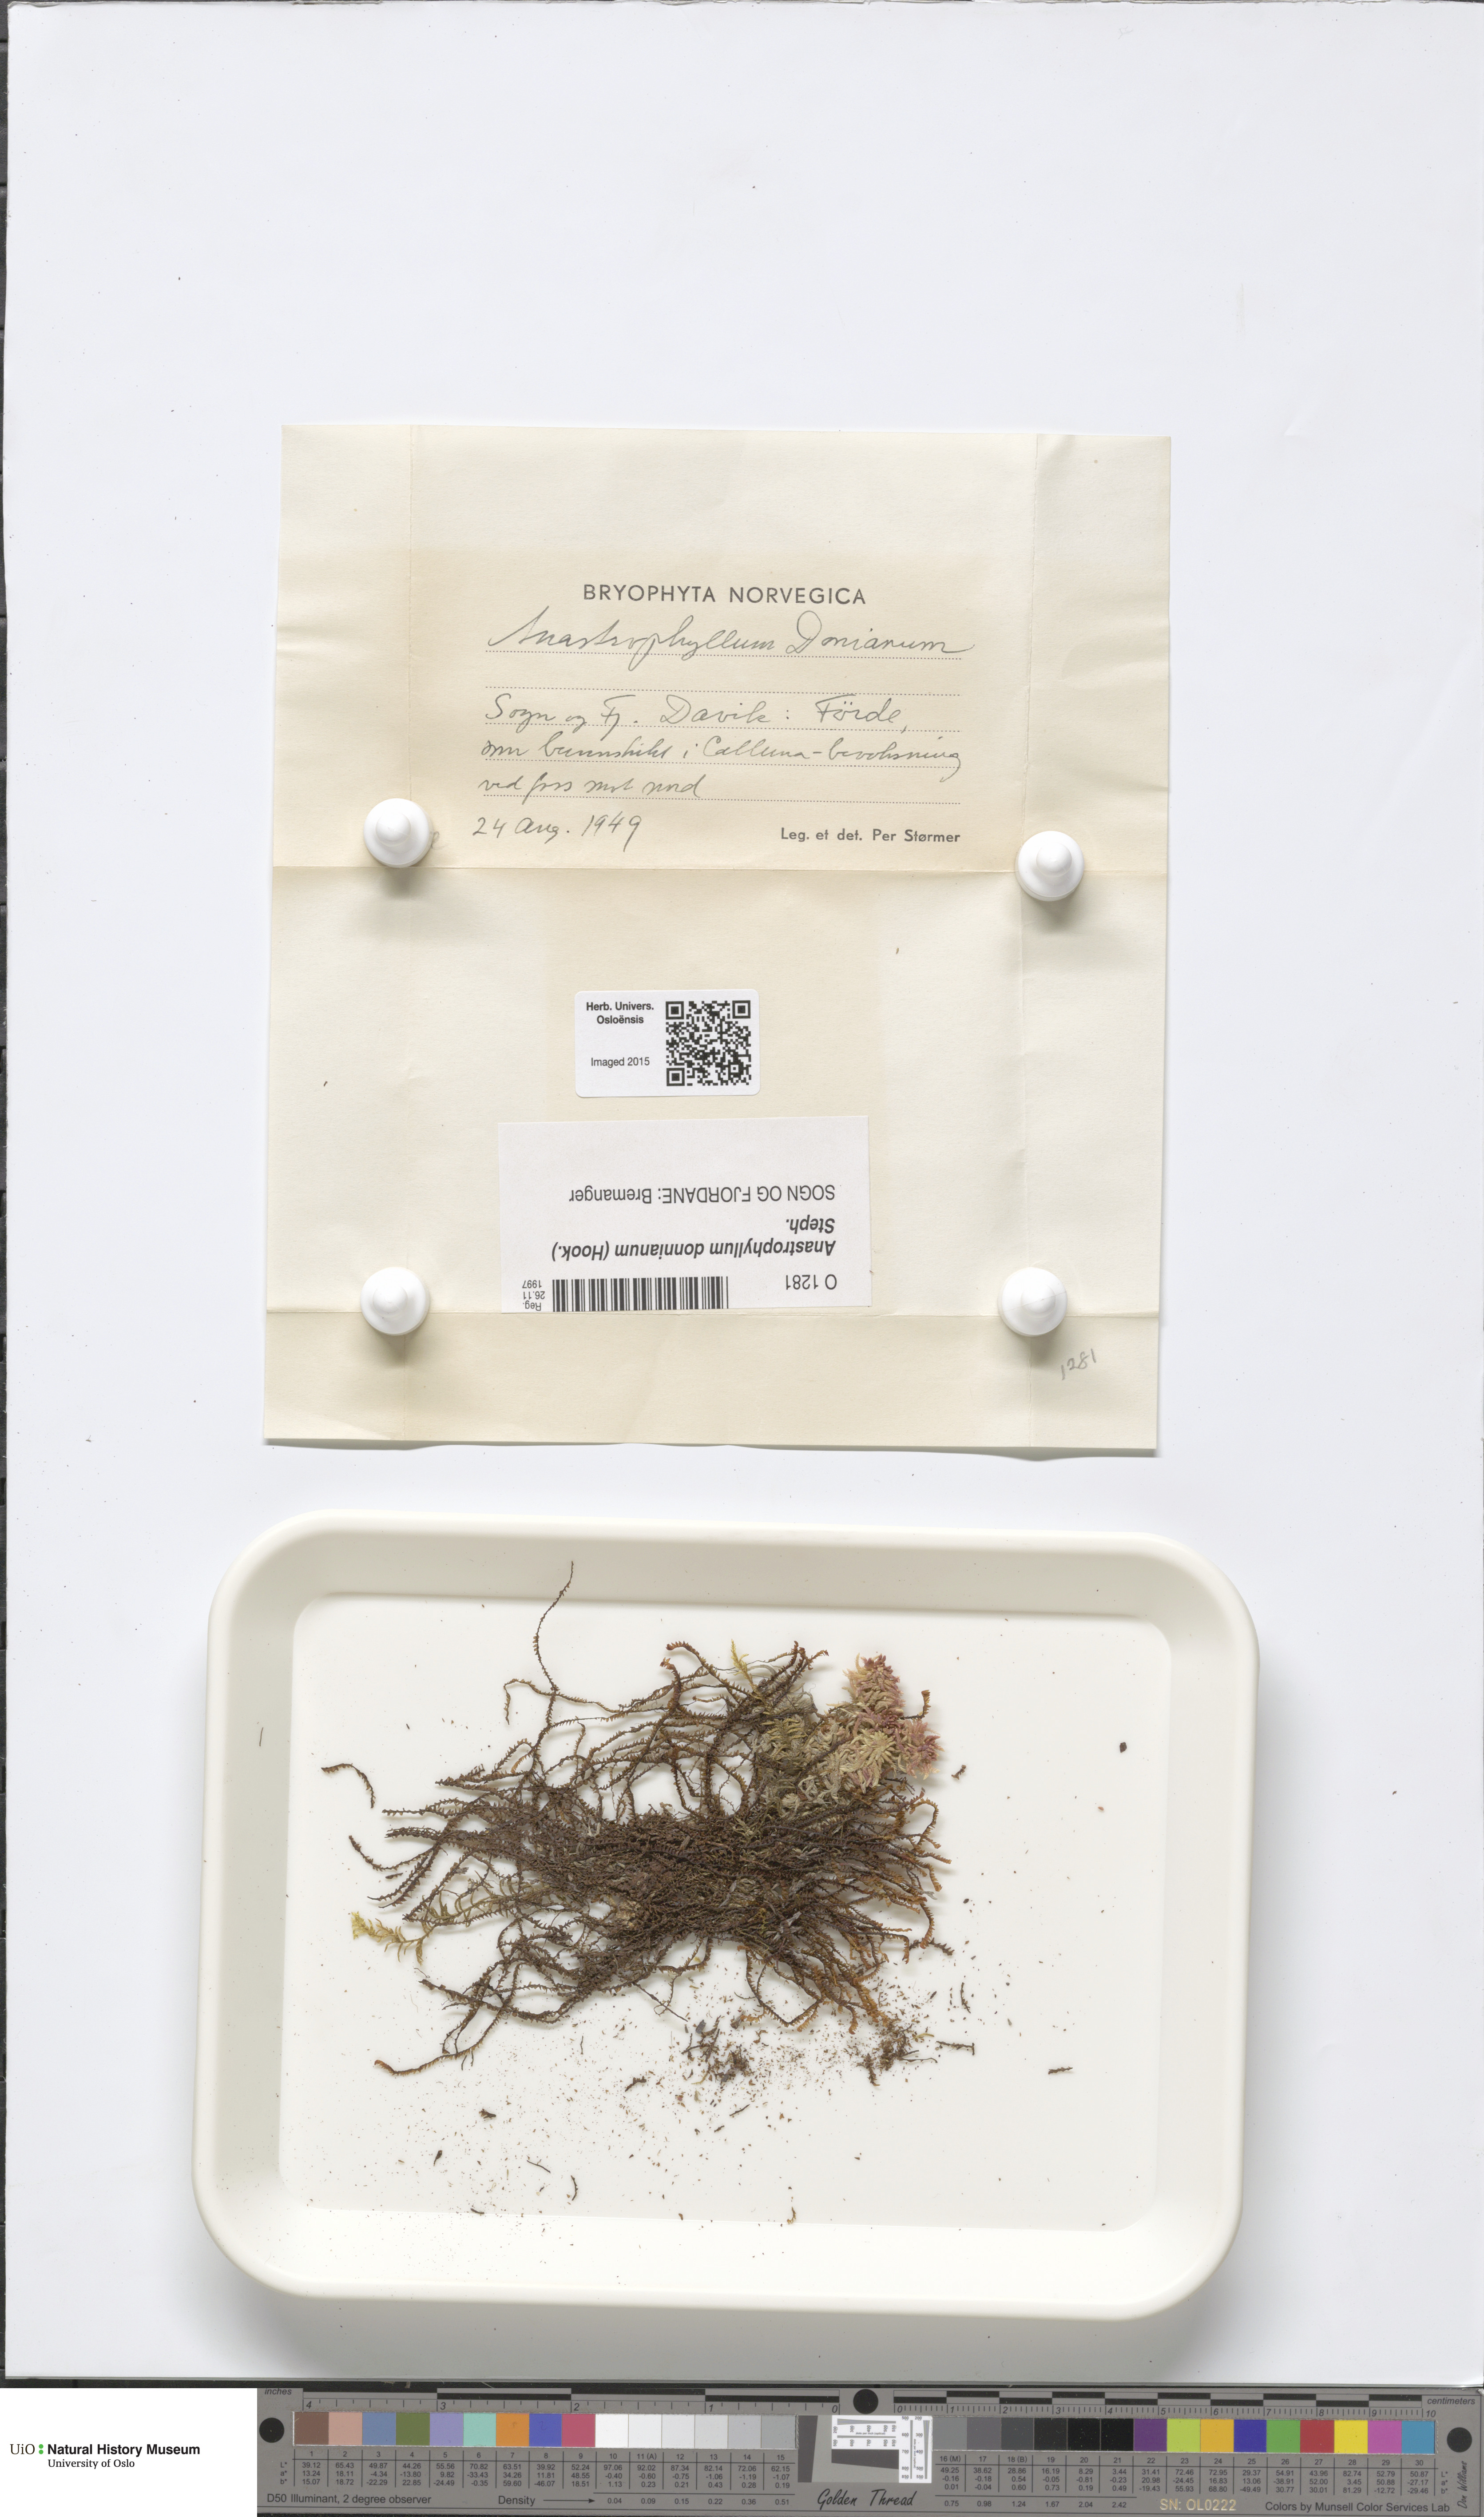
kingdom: Plantae
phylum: Marchantiophyta
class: Jungermanniopsida
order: Jungermanniales
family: Anastrophyllaceae
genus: Anastrophyllum
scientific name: Anastrophyllum donnianum
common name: Donn's notchwort
